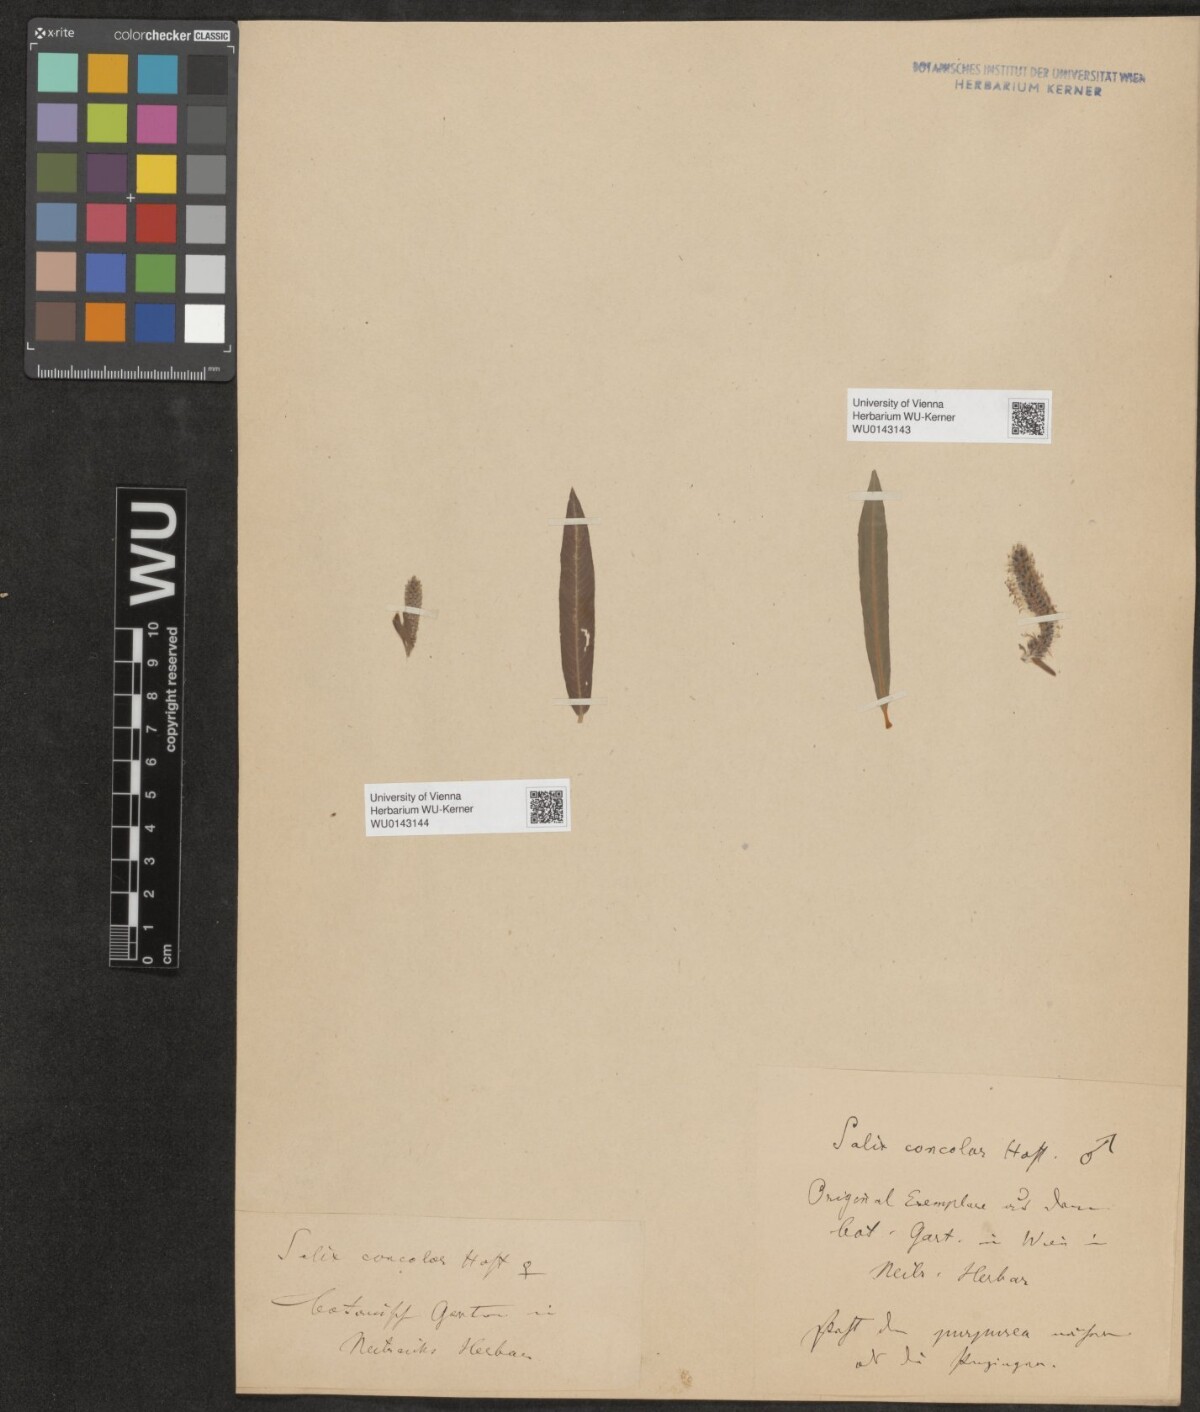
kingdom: Plantae
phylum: Tracheophyta
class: Magnoliopsida
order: Malpighiales
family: Salicaceae
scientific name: Salicaceae
